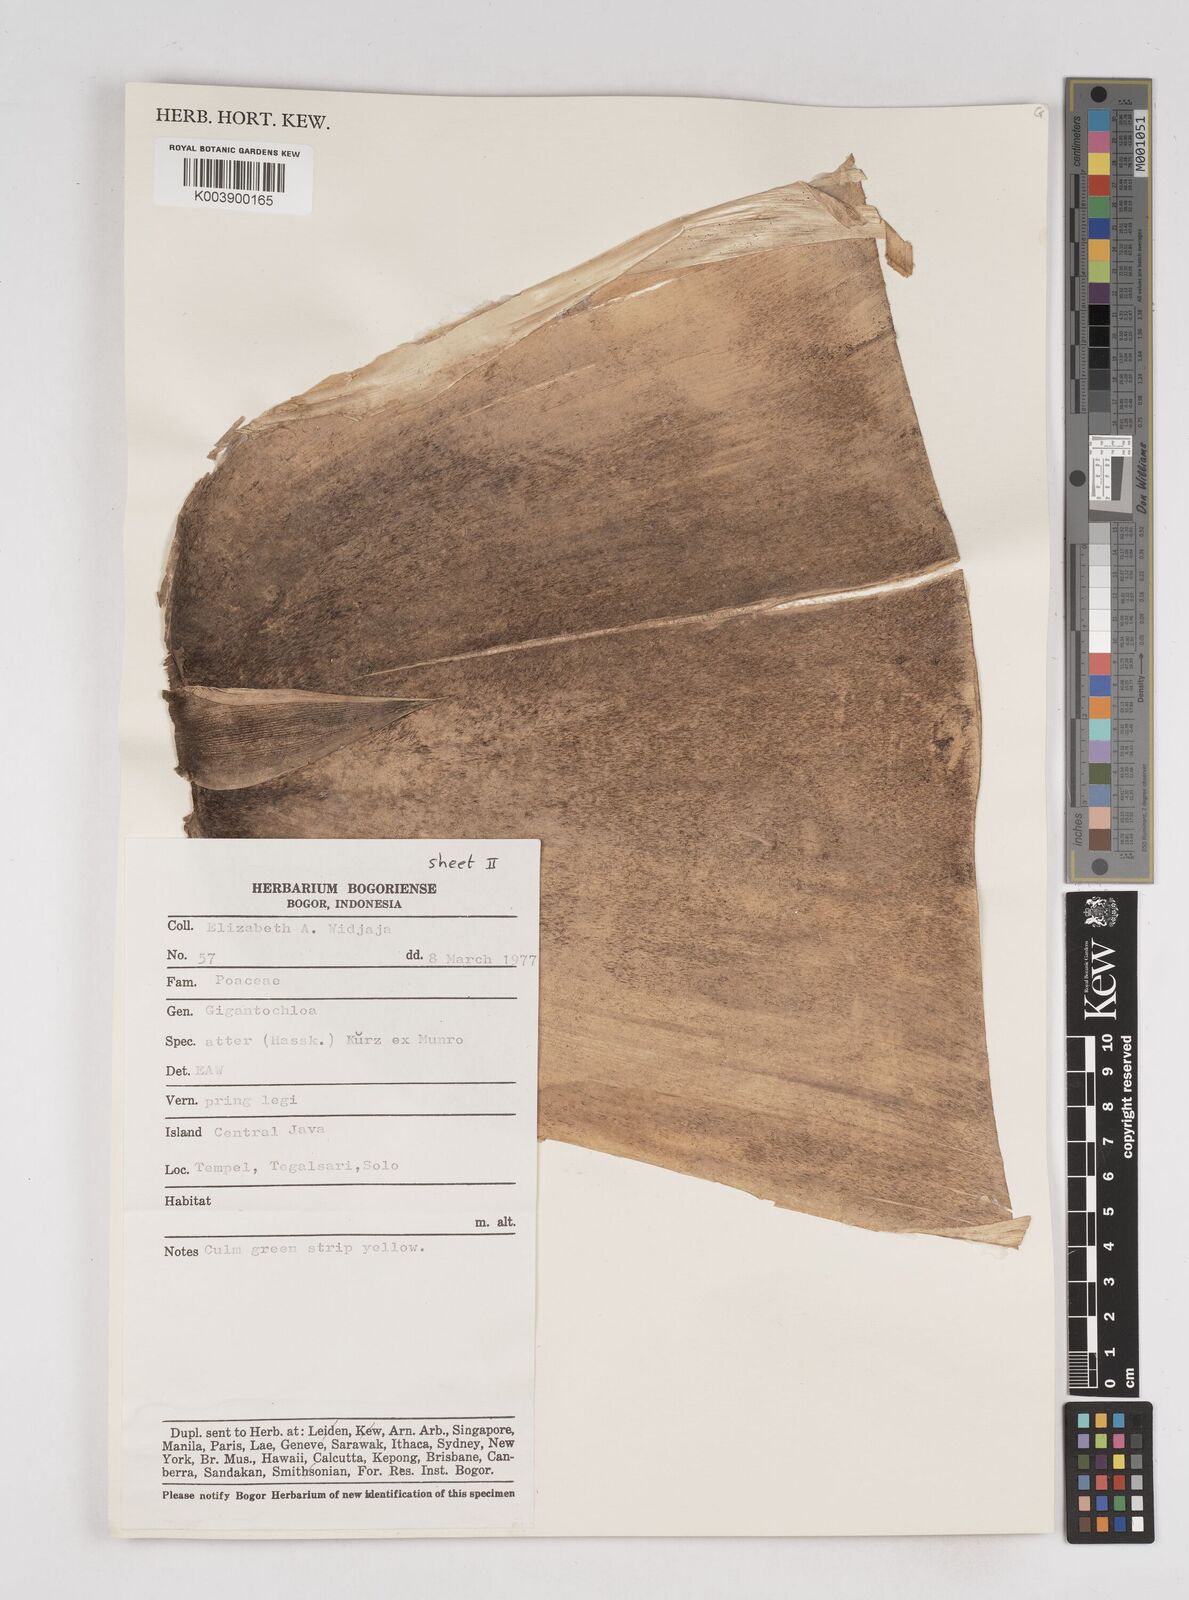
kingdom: Plantae
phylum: Tracheophyta
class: Liliopsida
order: Poales
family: Poaceae
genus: Gigantochloa
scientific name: Gigantochloa atter
